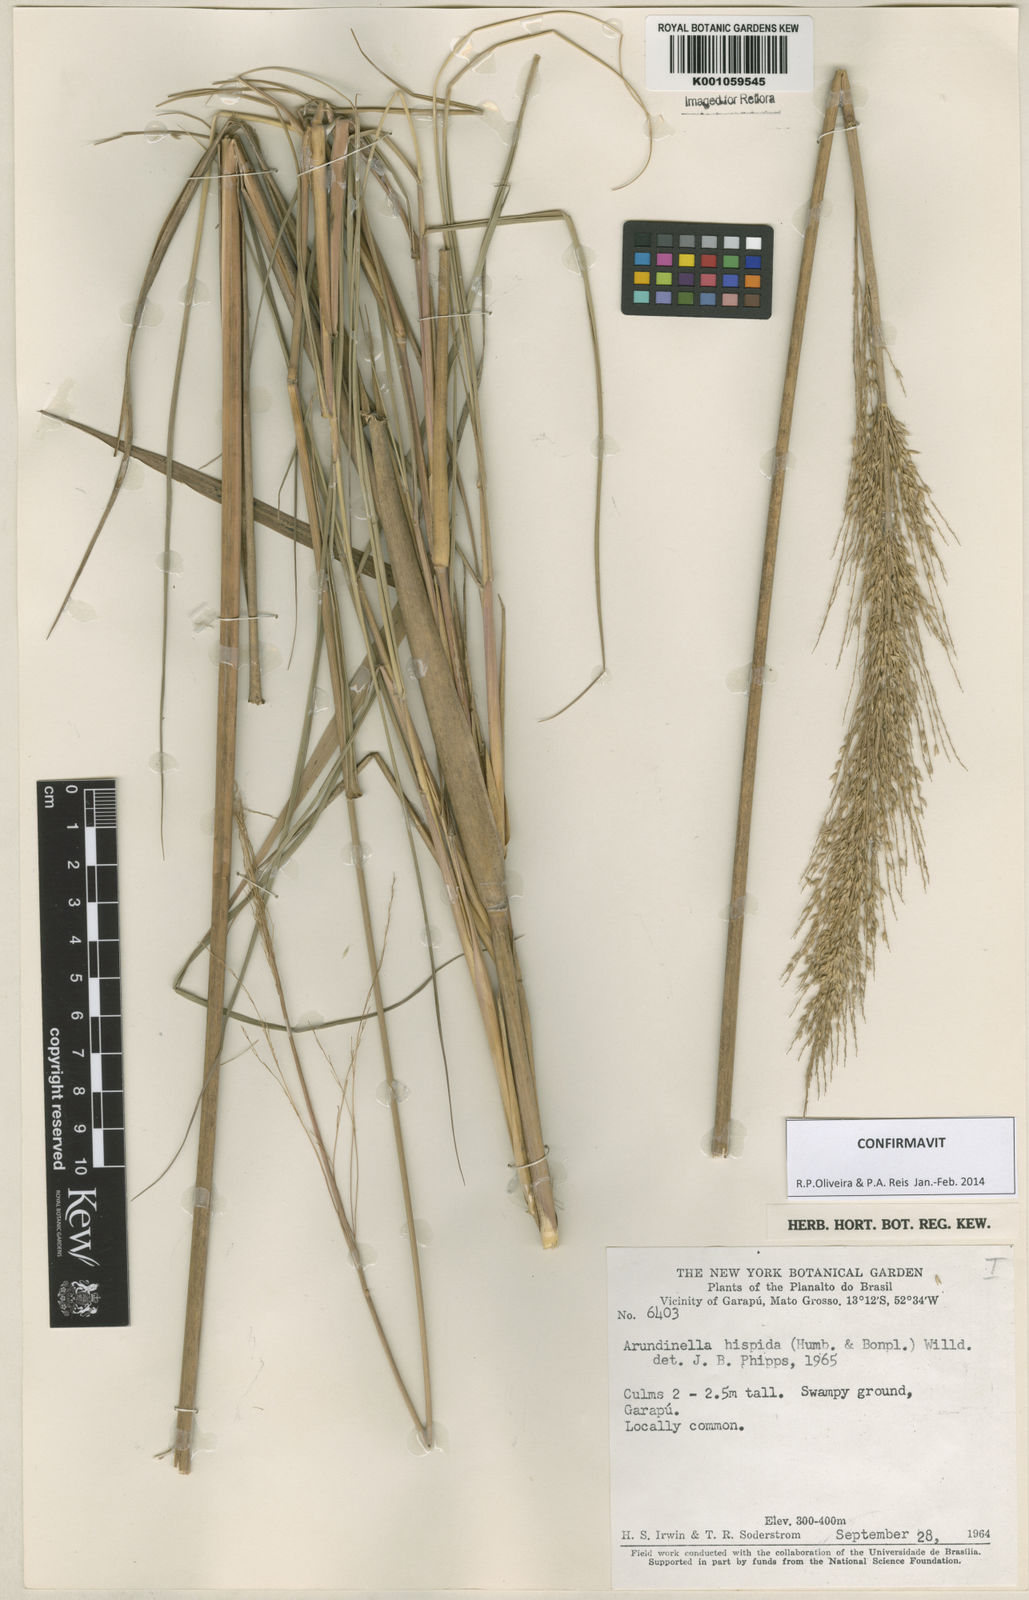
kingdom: Plantae
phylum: Tracheophyta
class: Liliopsida
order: Poales
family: Poaceae
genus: Arundinella
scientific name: Arundinella hispida
